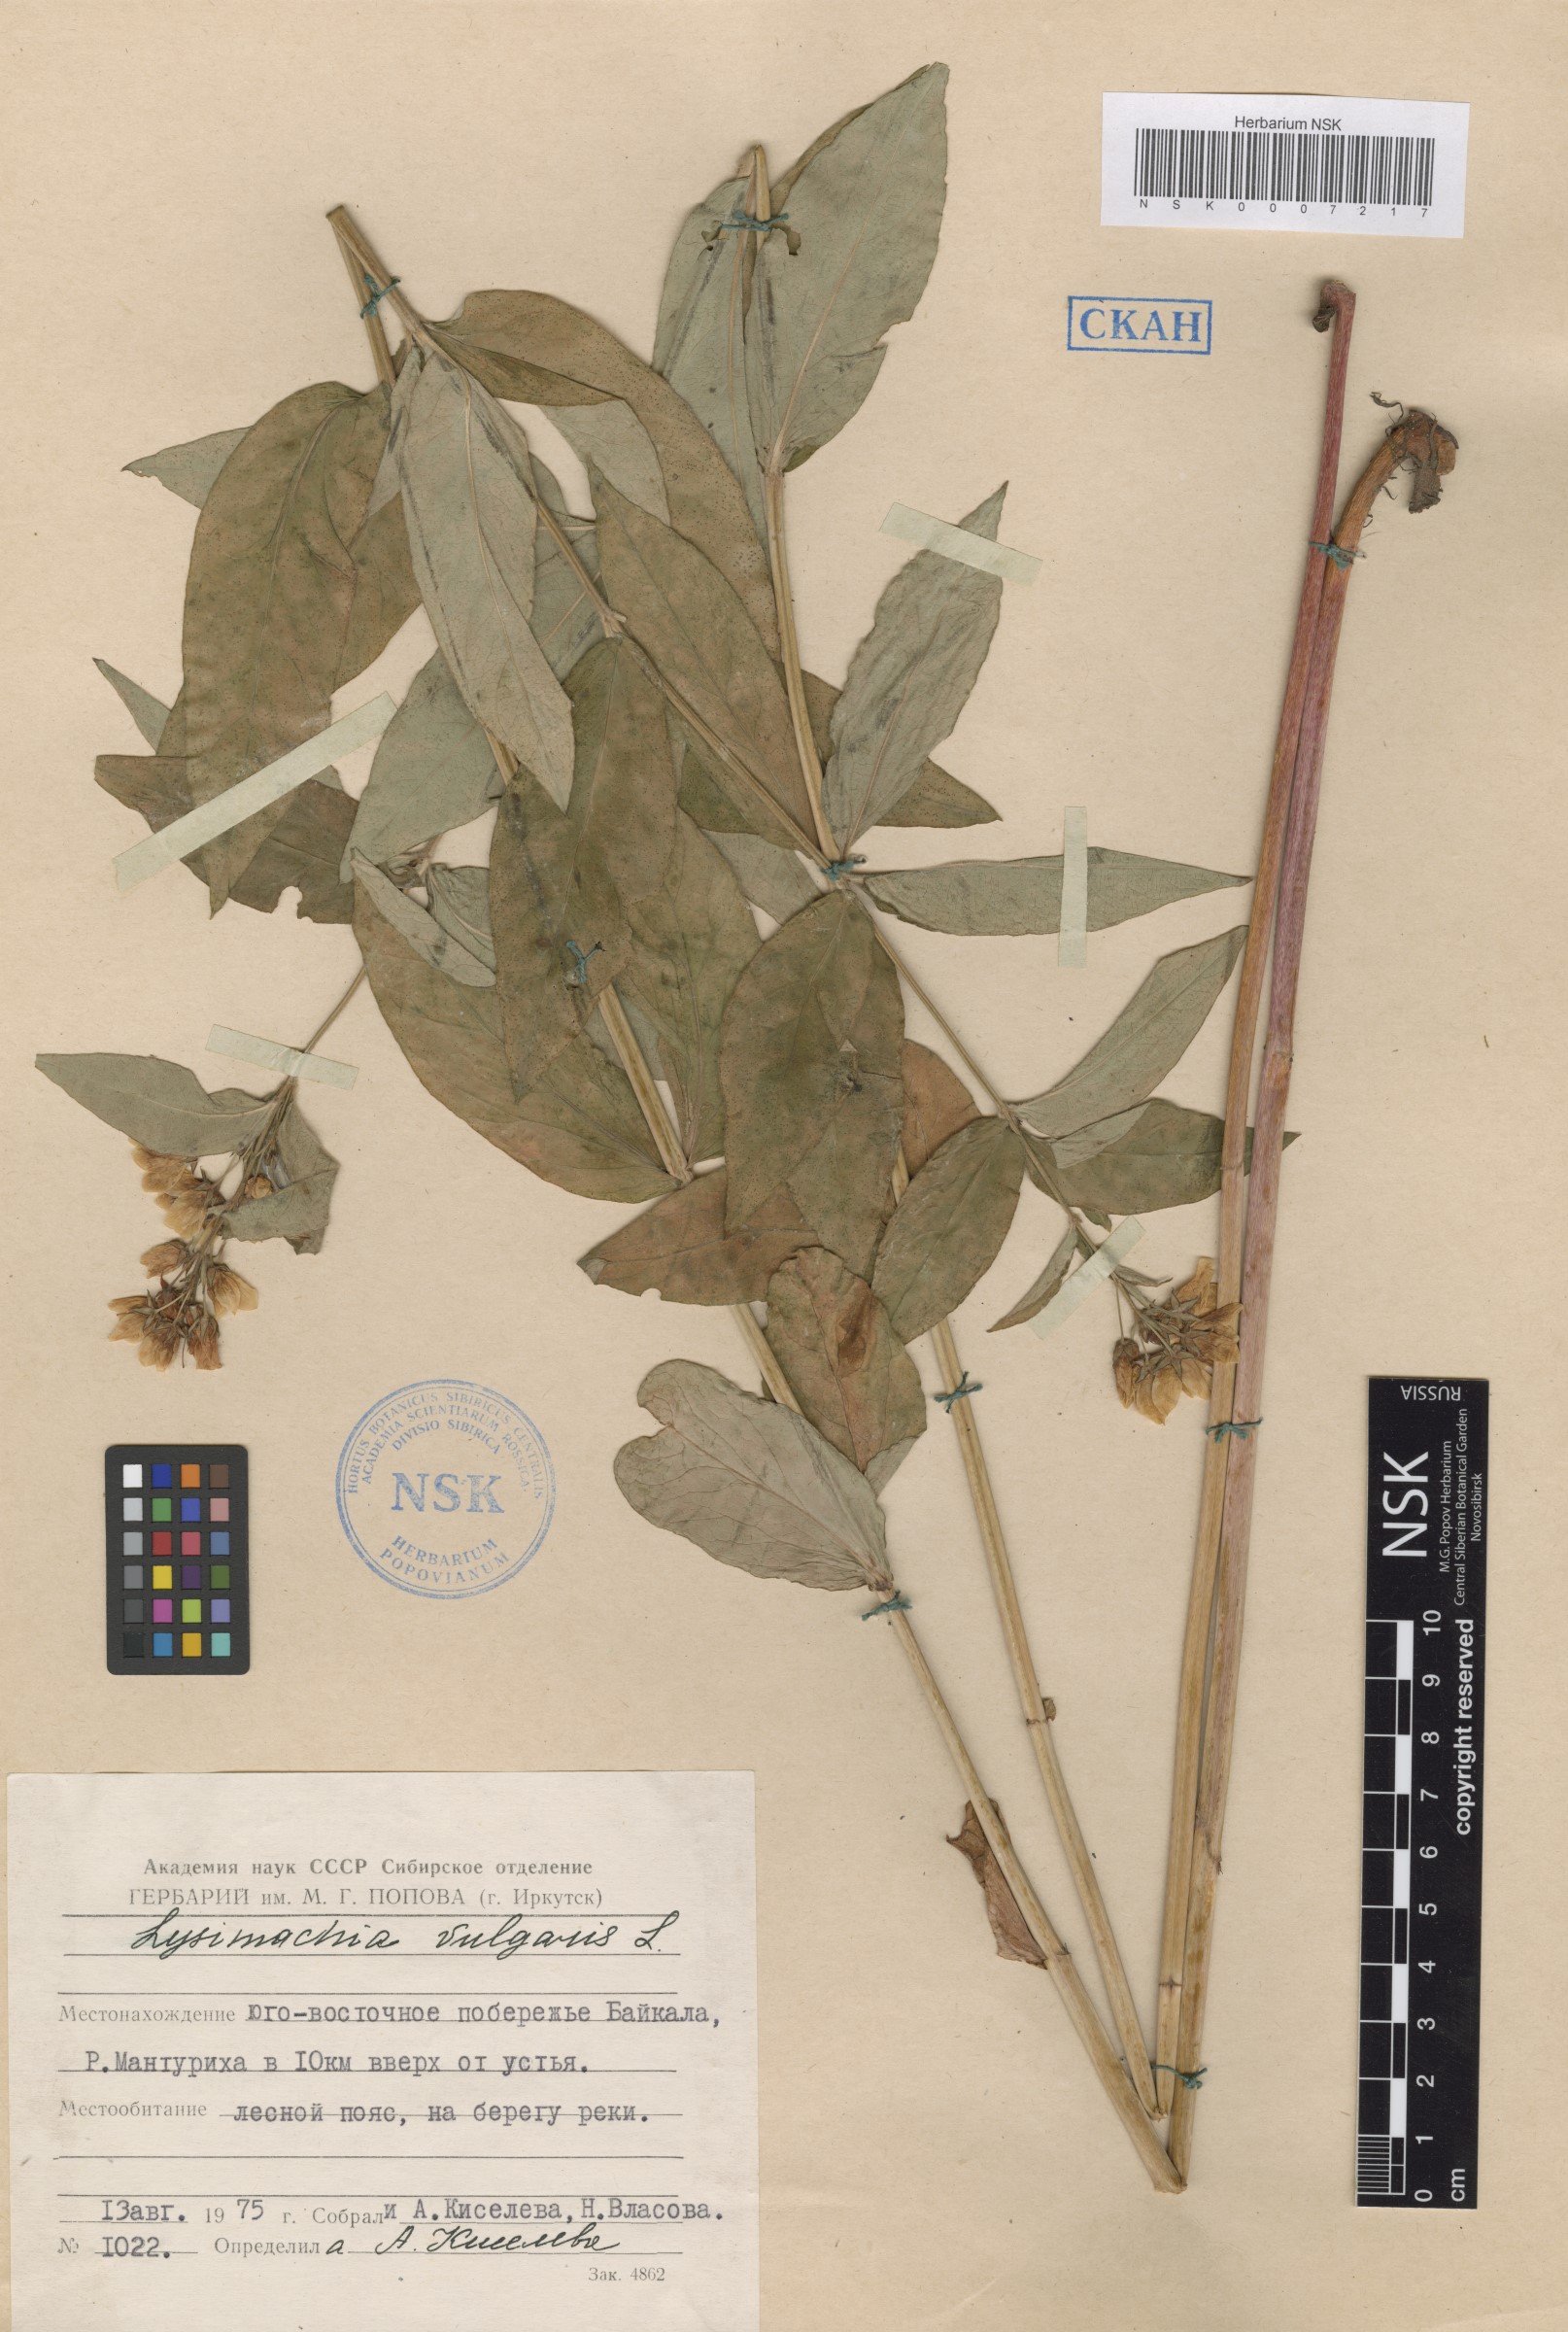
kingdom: Plantae
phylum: Tracheophyta
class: Magnoliopsida
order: Ericales
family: Primulaceae
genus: Lysimachia
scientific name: Lysimachia vulgaris
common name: Yellow loosestrife
